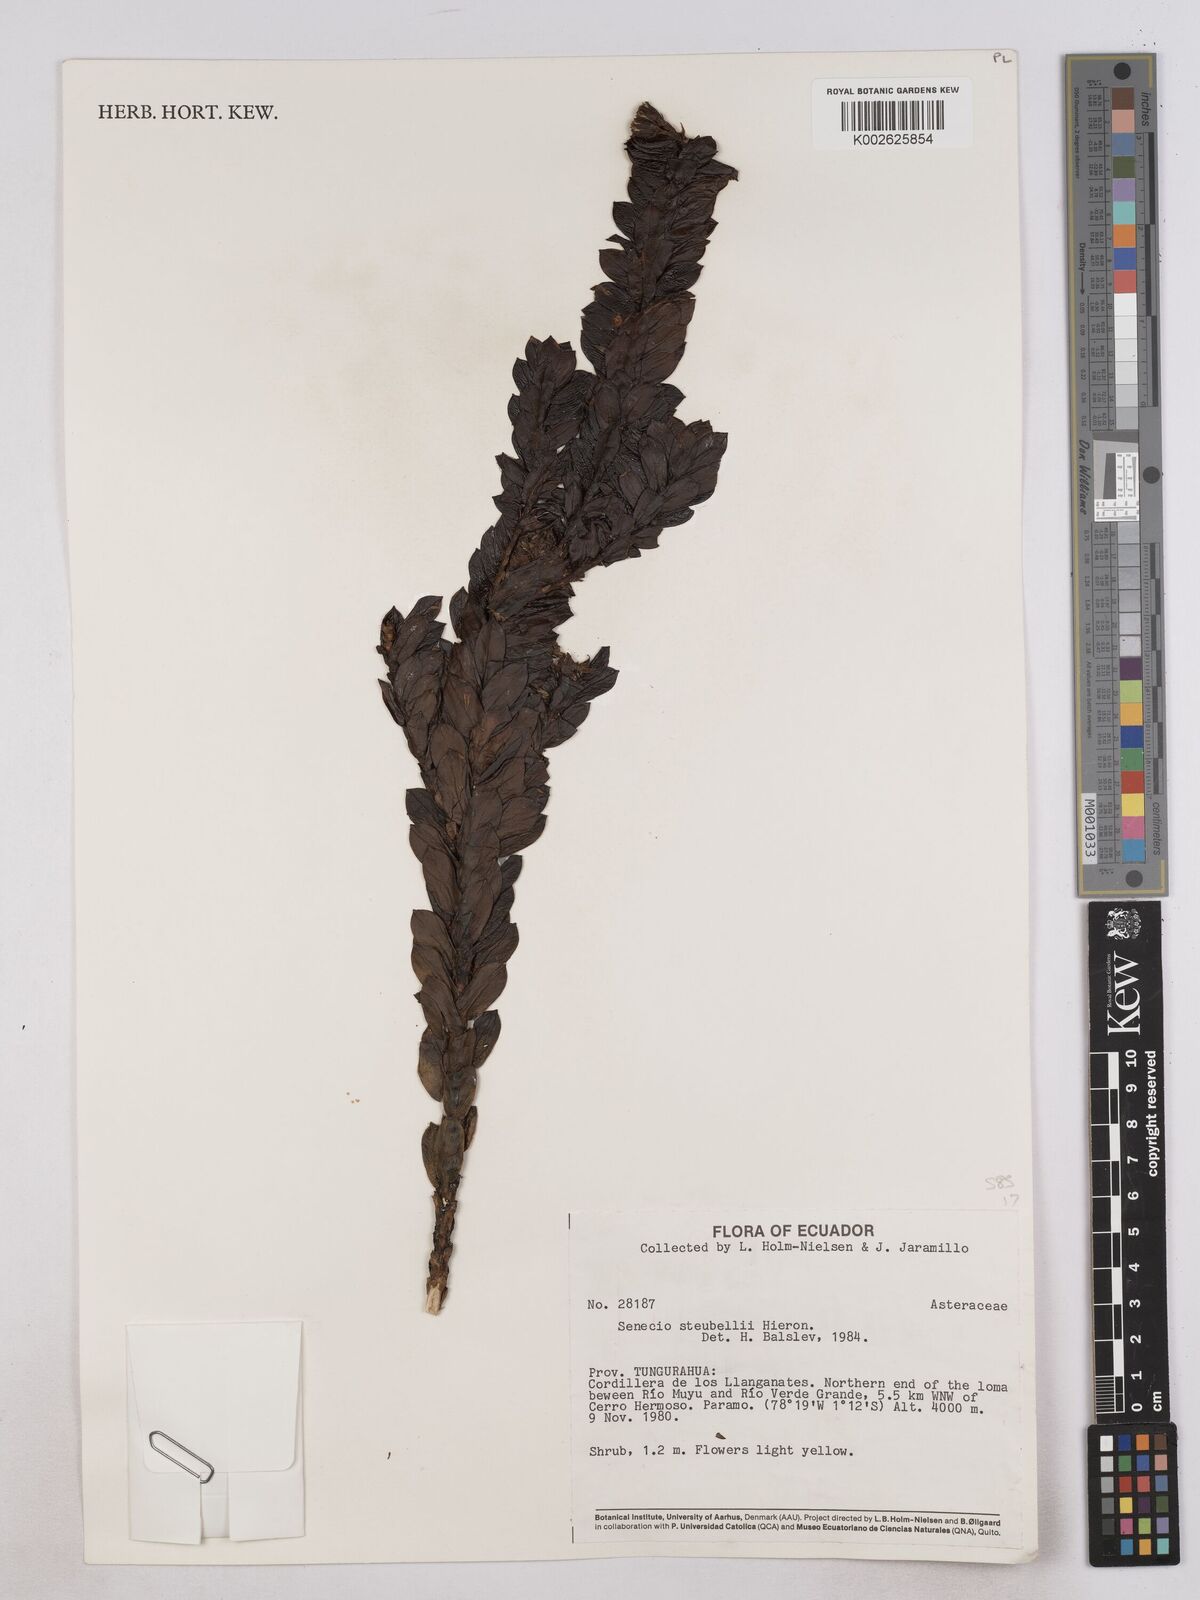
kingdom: Plantae
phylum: Tracheophyta
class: Magnoliopsida
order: Asterales
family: Asteraceae
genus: Monticalia
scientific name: Monticalia stuebelii
